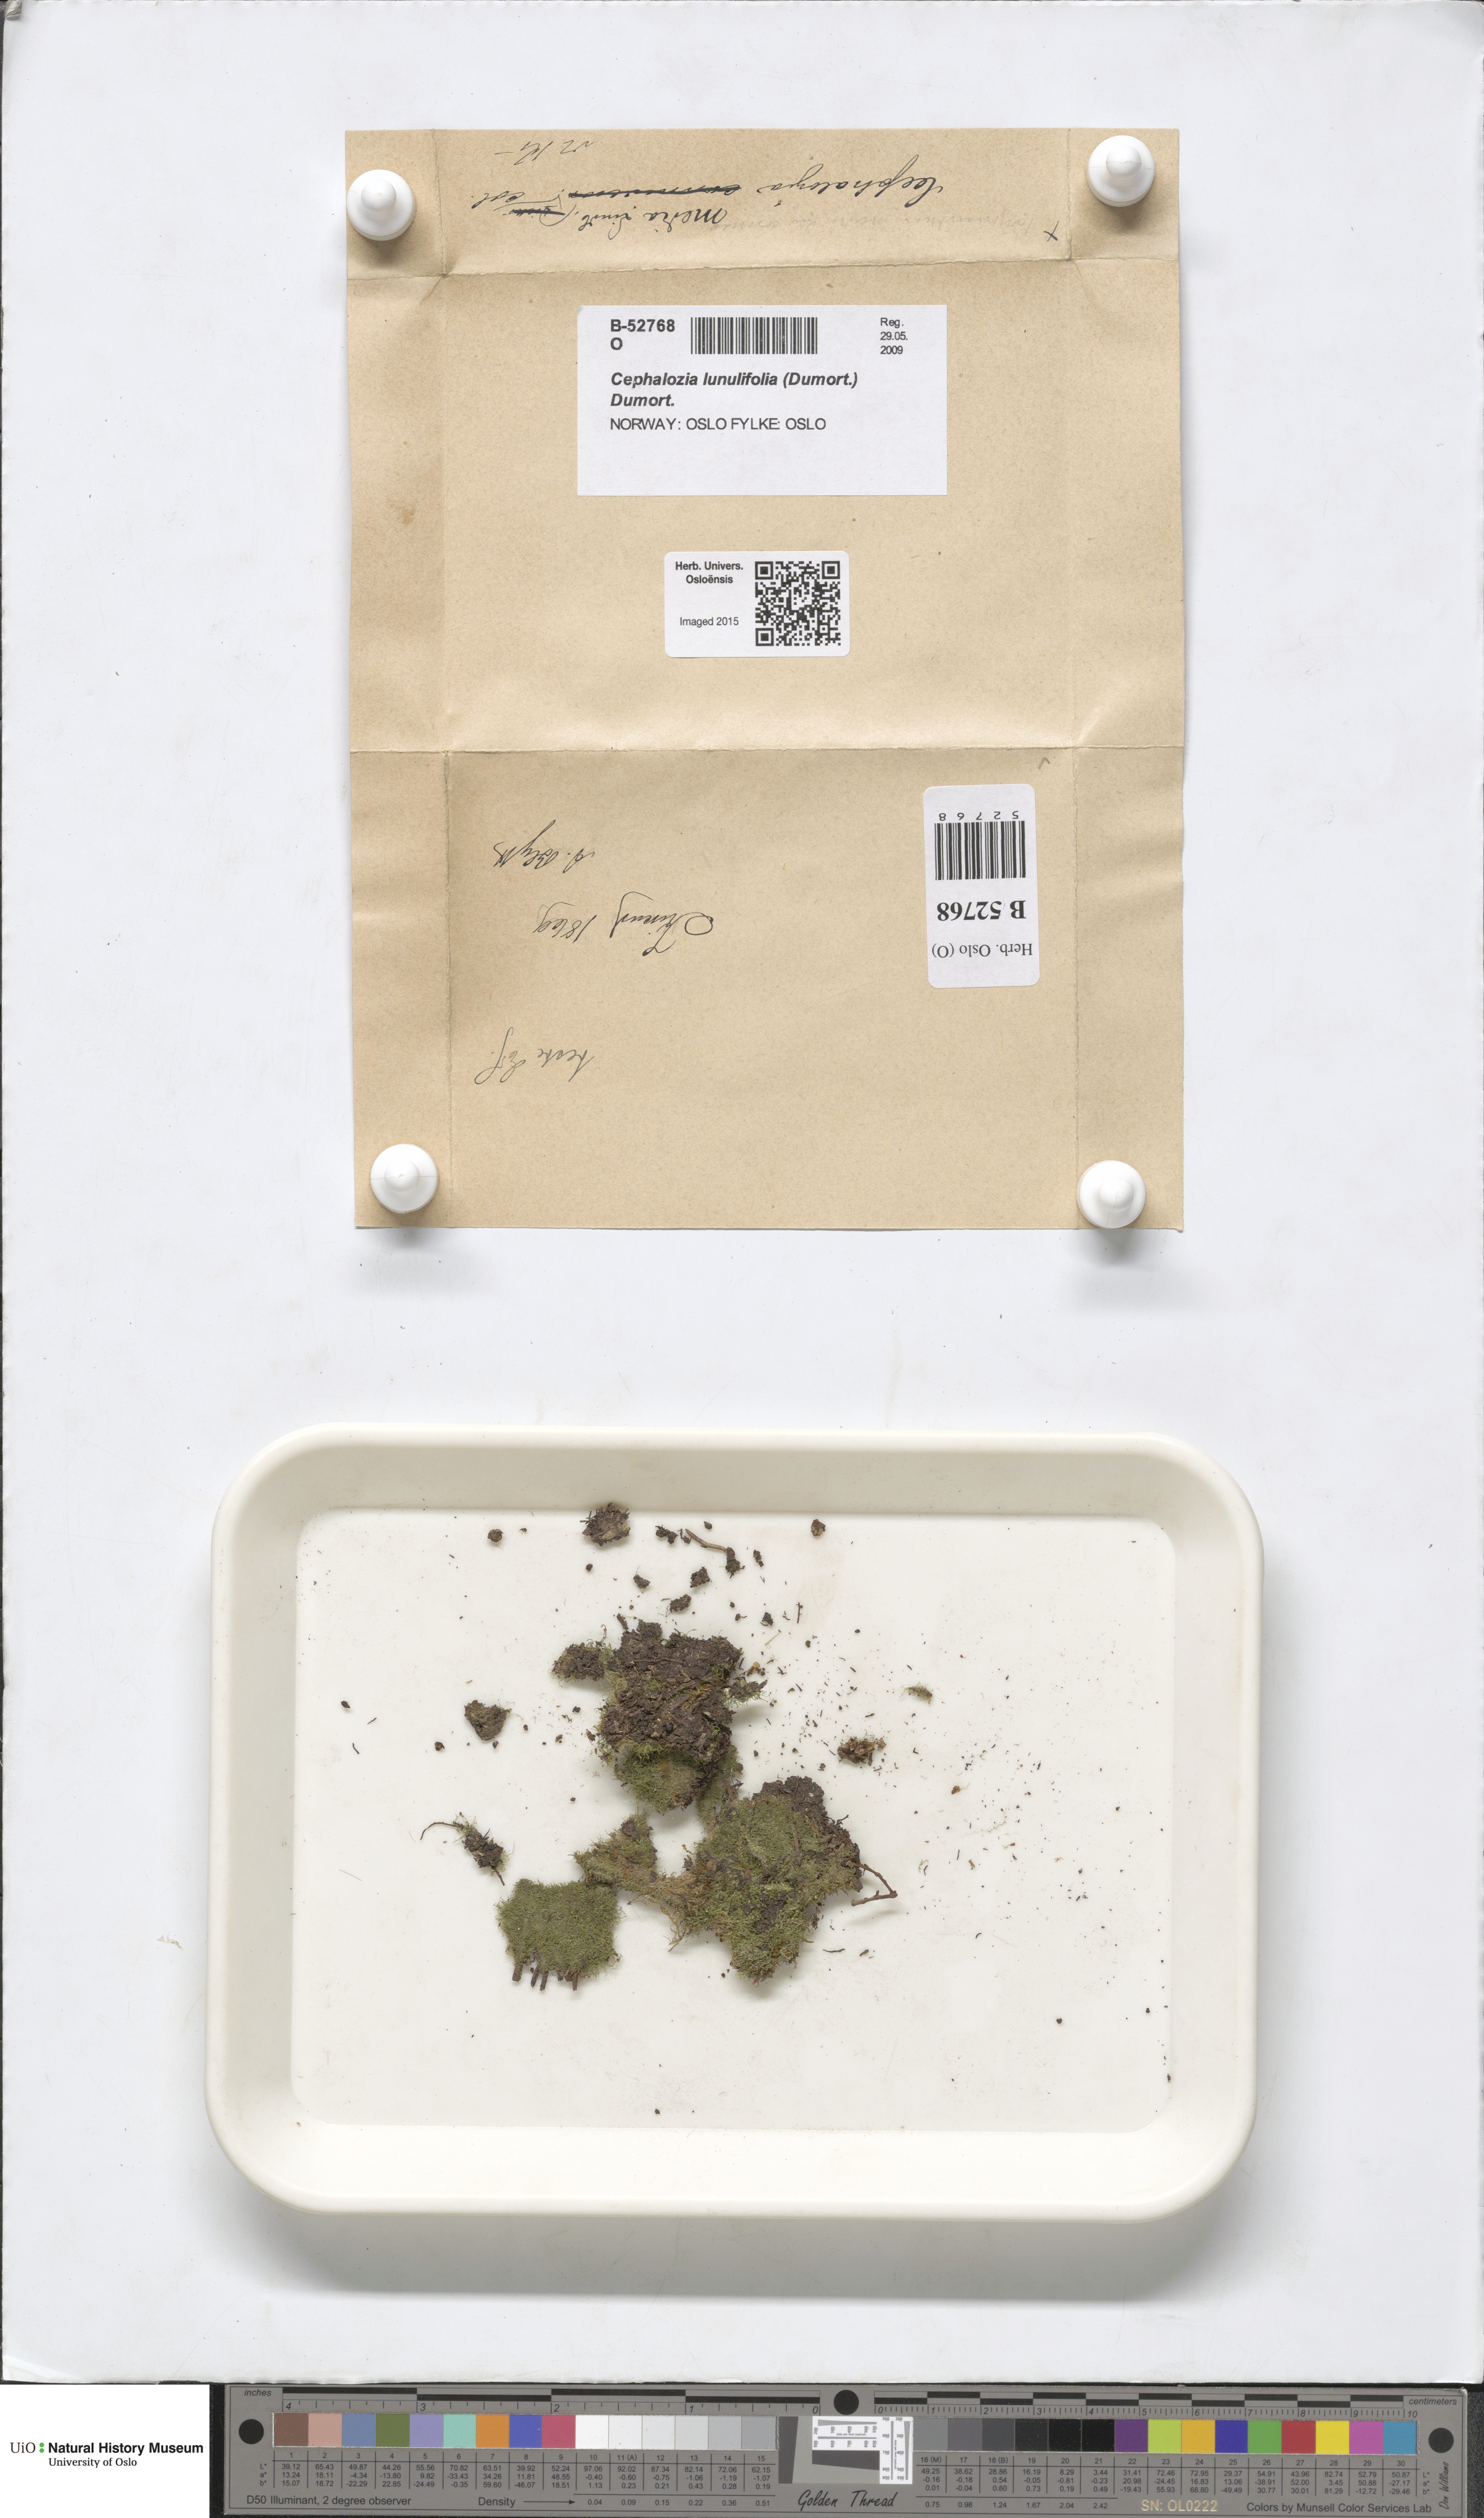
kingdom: Plantae
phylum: Marchantiophyta
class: Jungermanniopsida
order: Jungermanniales
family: Cephaloziaceae
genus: Fuscocephaloziopsis
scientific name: Fuscocephaloziopsis lunulifolia
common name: Moon-leaved pincerwort
